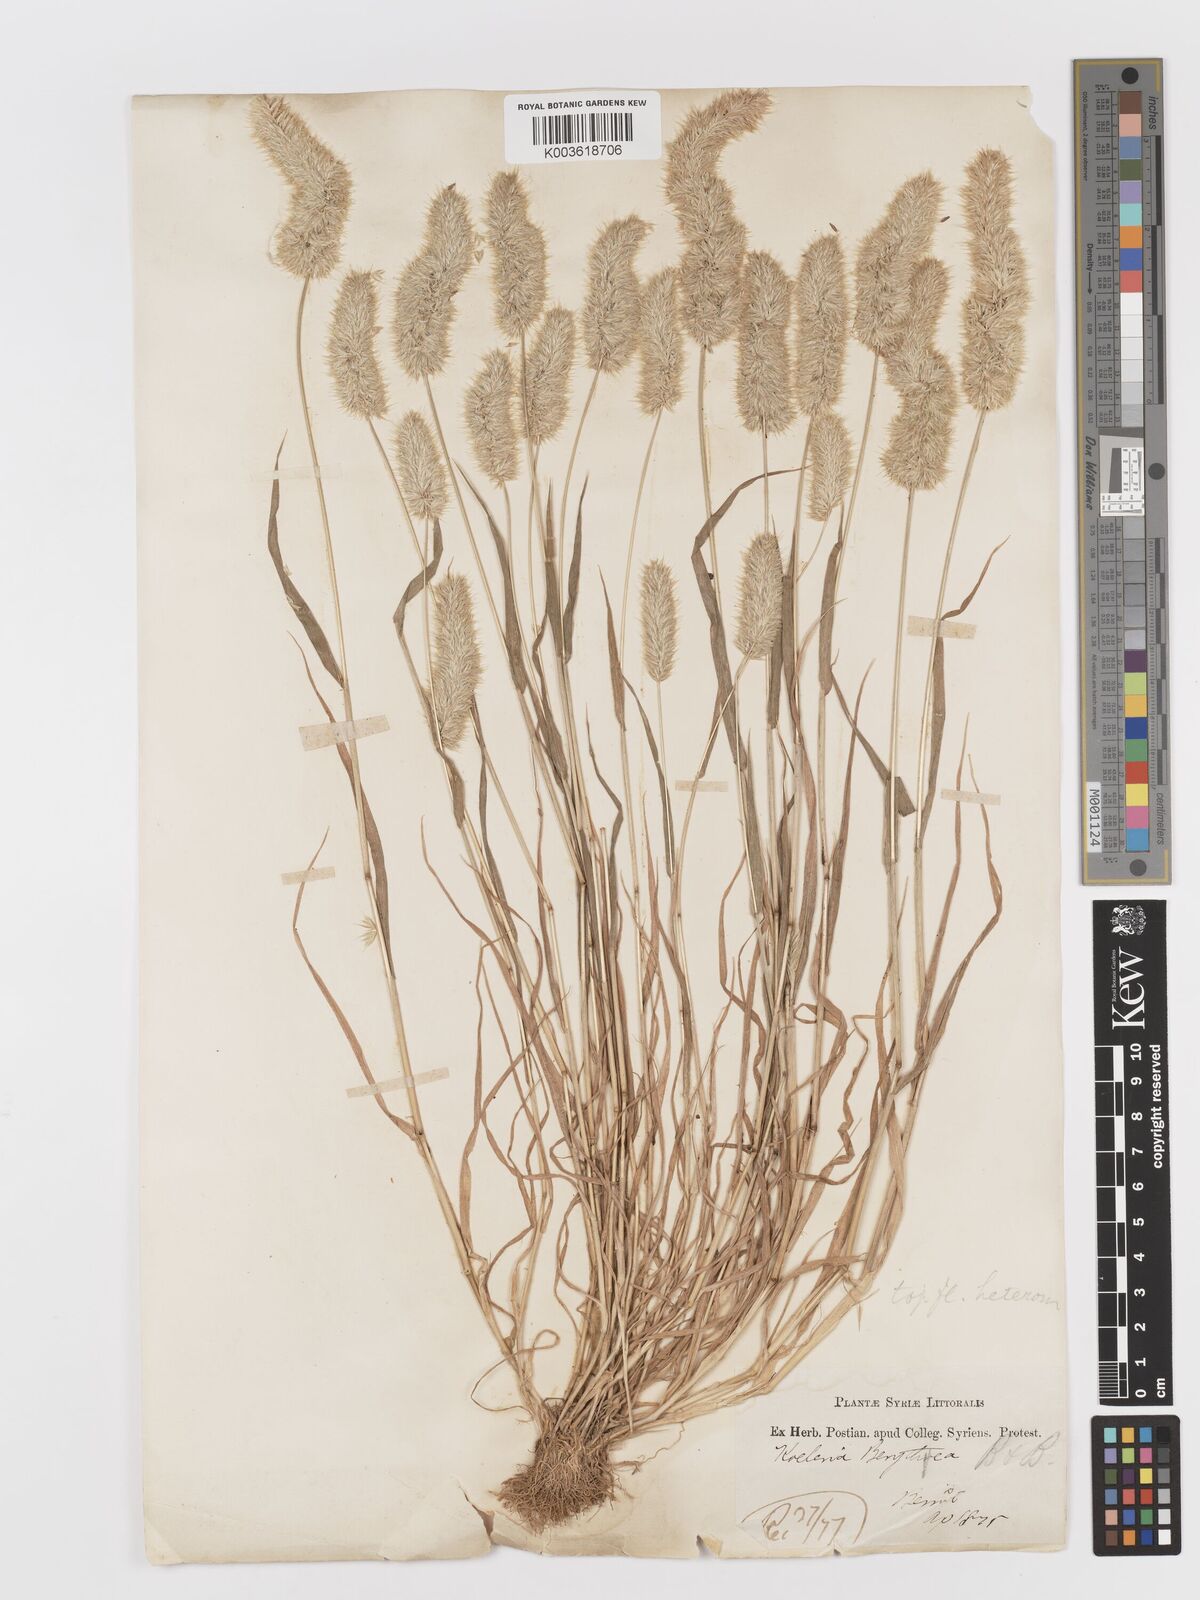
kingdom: Plantae
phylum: Tracheophyta
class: Liliopsida
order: Poales
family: Poaceae
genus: Rostraria
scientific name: Rostraria smyrnaea
